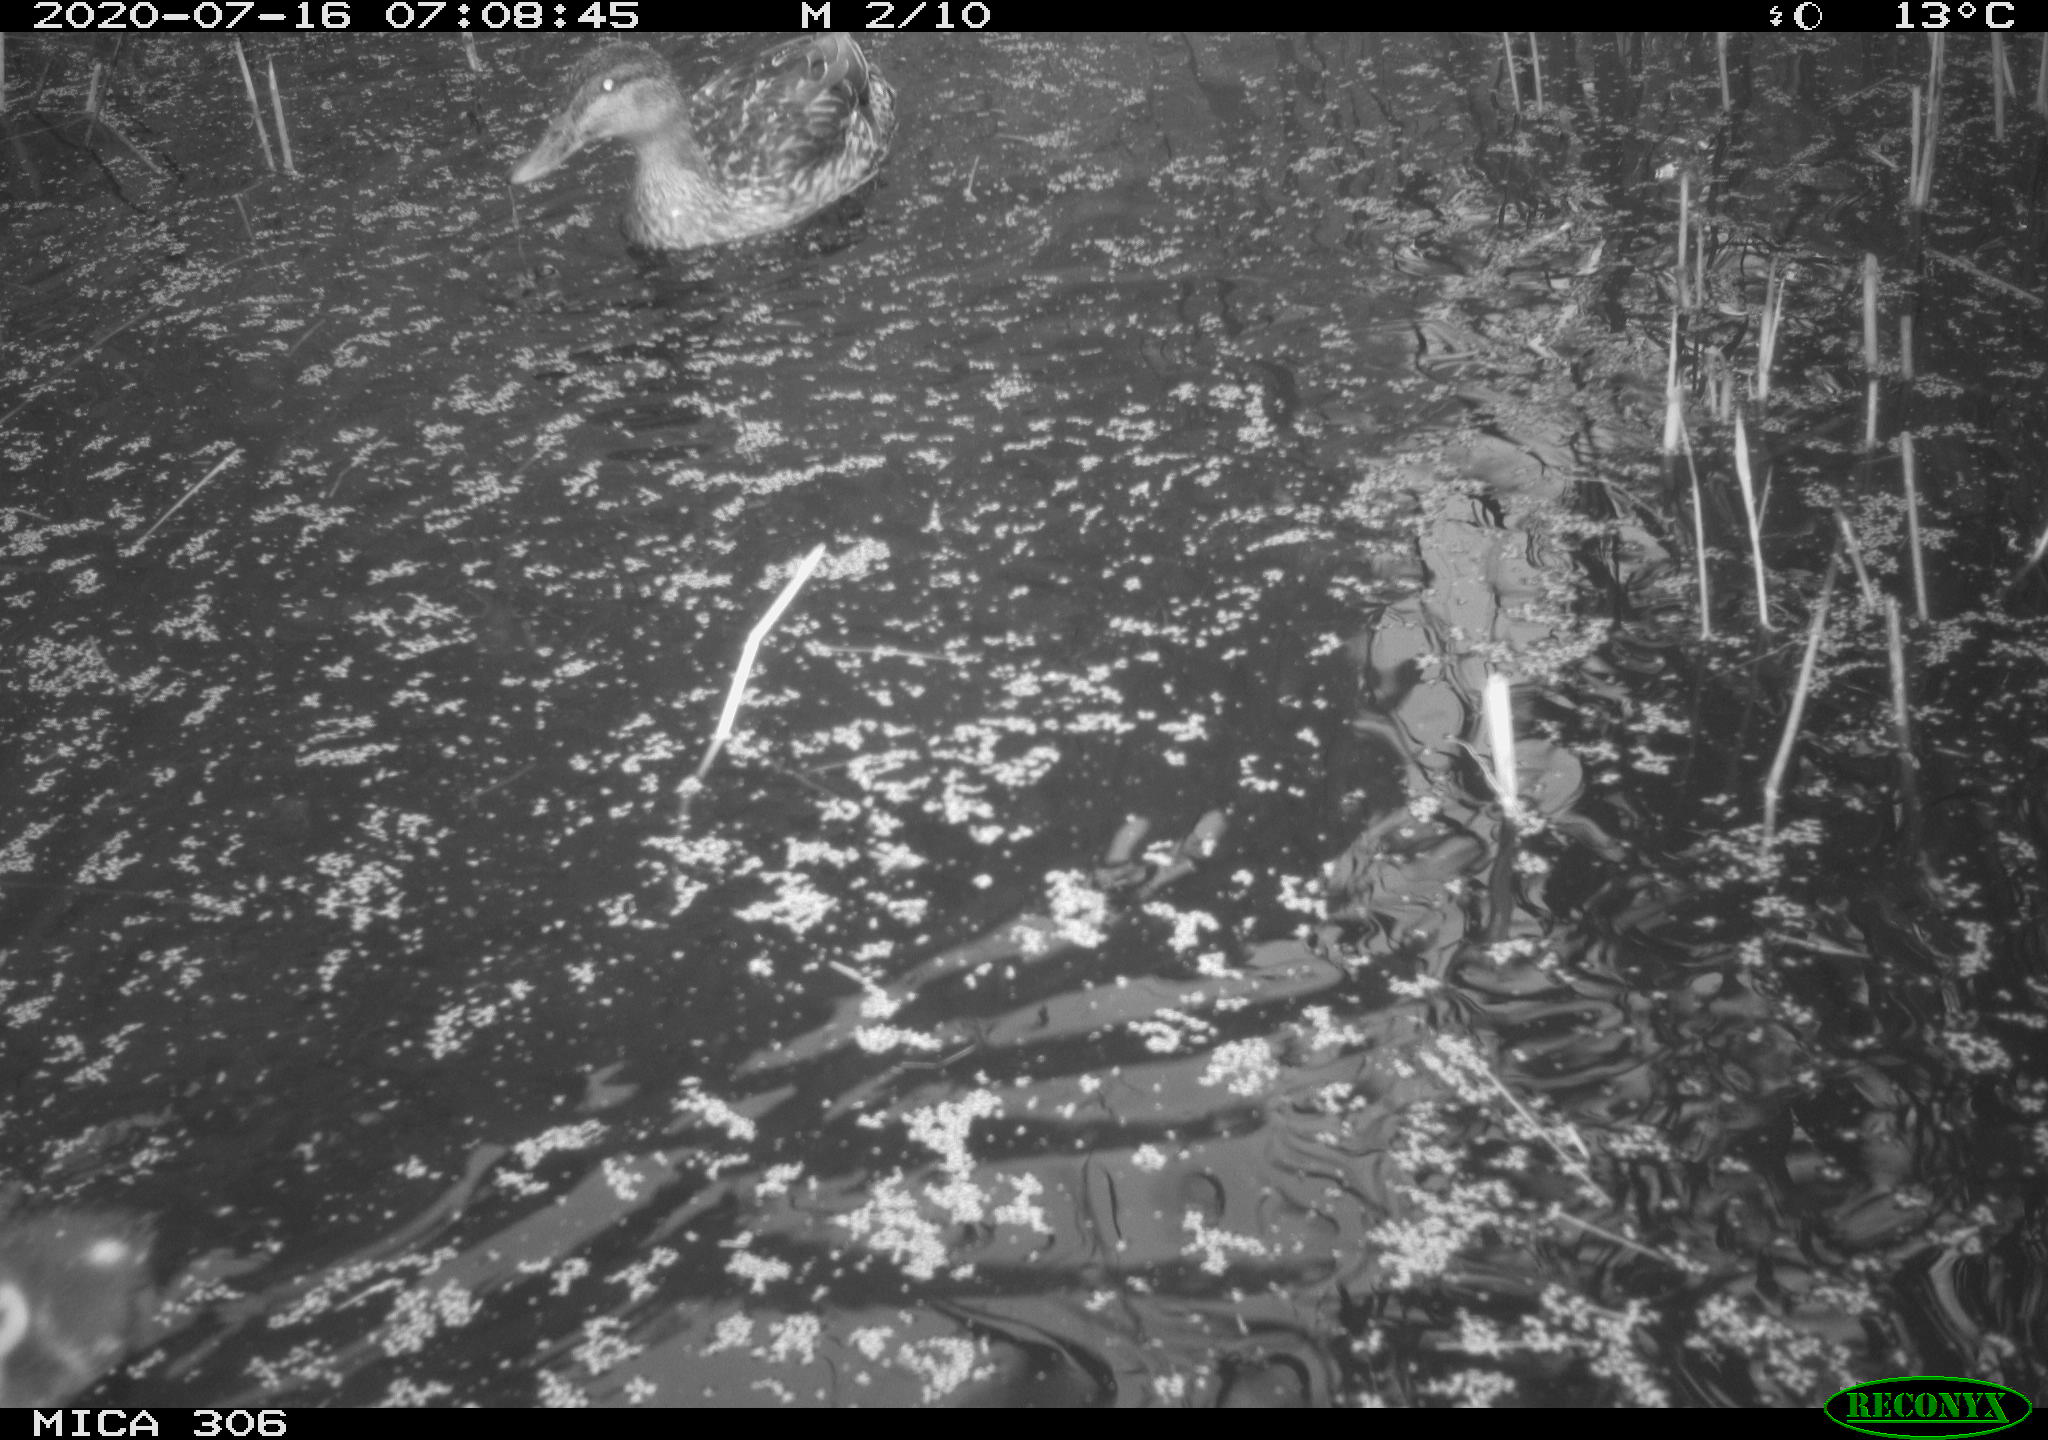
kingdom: Animalia
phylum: Chordata
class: Aves
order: Anseriformes
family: Anatidae
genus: Anas
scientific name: Anas platyrhynchos
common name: Mallard
